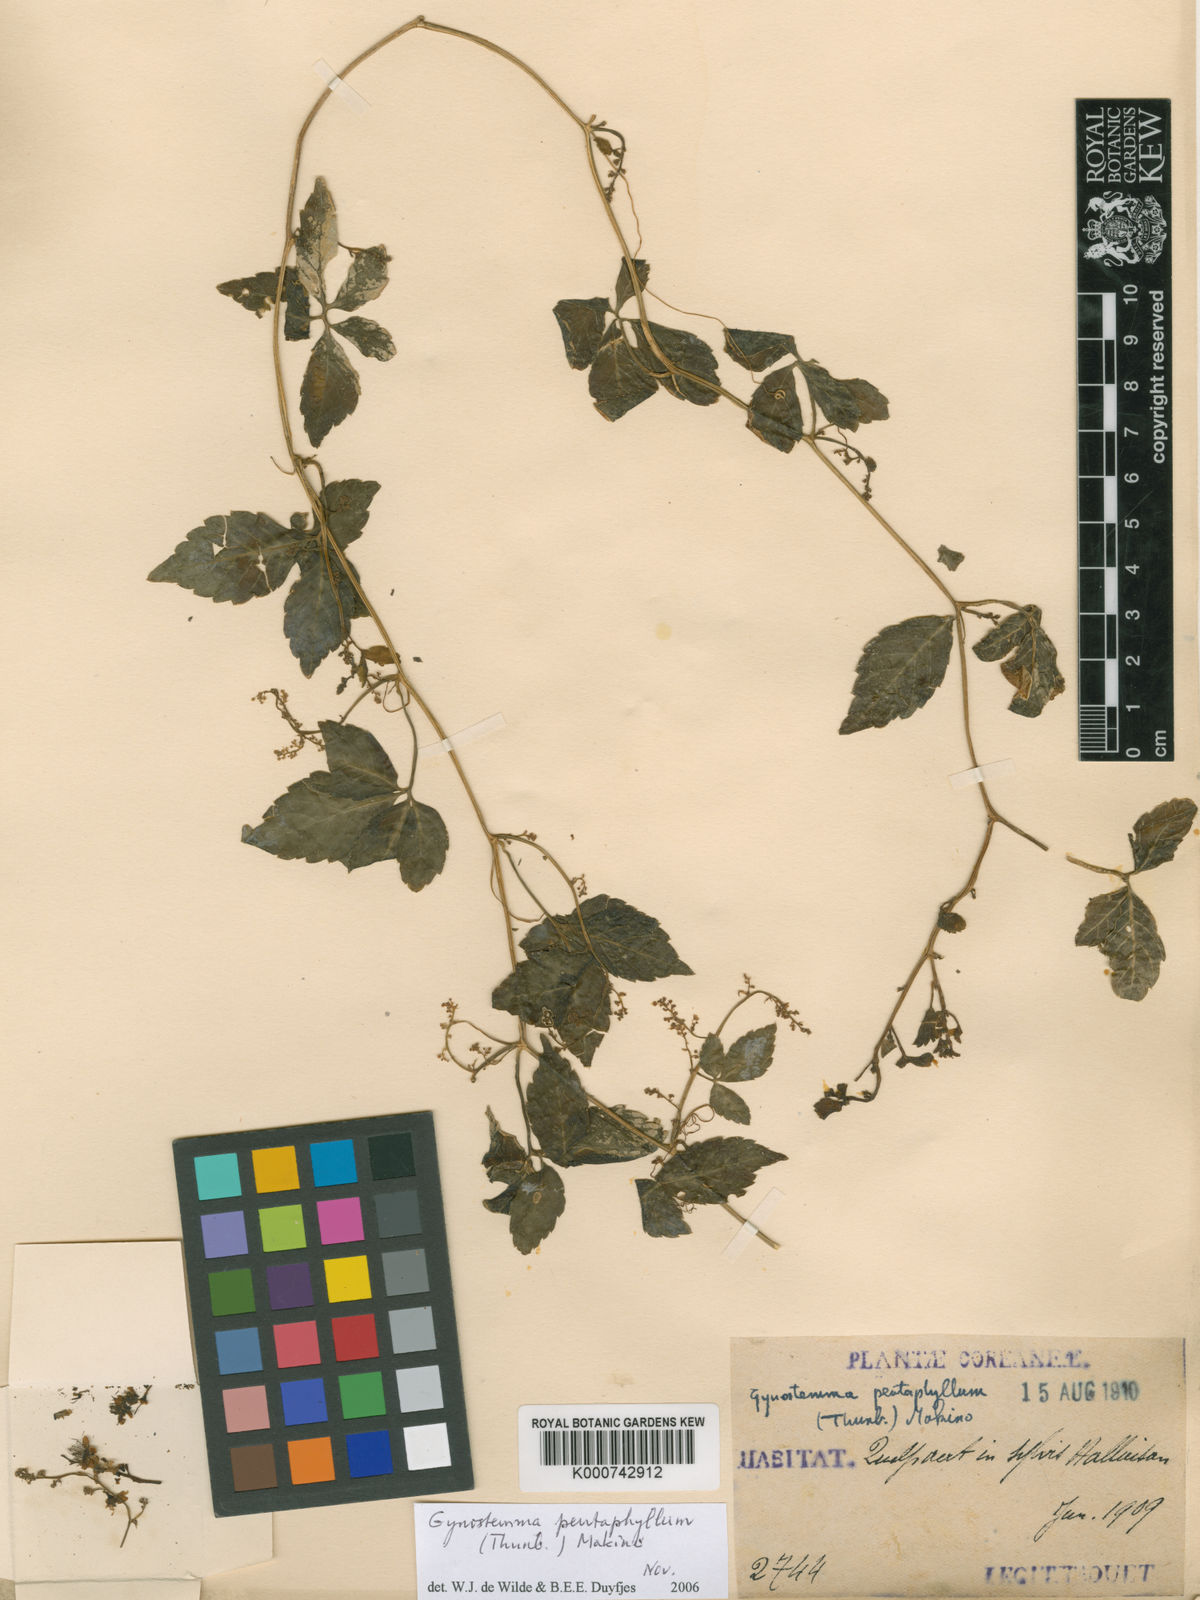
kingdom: Plantae
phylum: Tracheophyta
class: Magnoliopsida
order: Cucurbitales
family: Cucurbitaceae
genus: Gynostemma
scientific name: Gynostemma pentaphyllum
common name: Gynostemma
